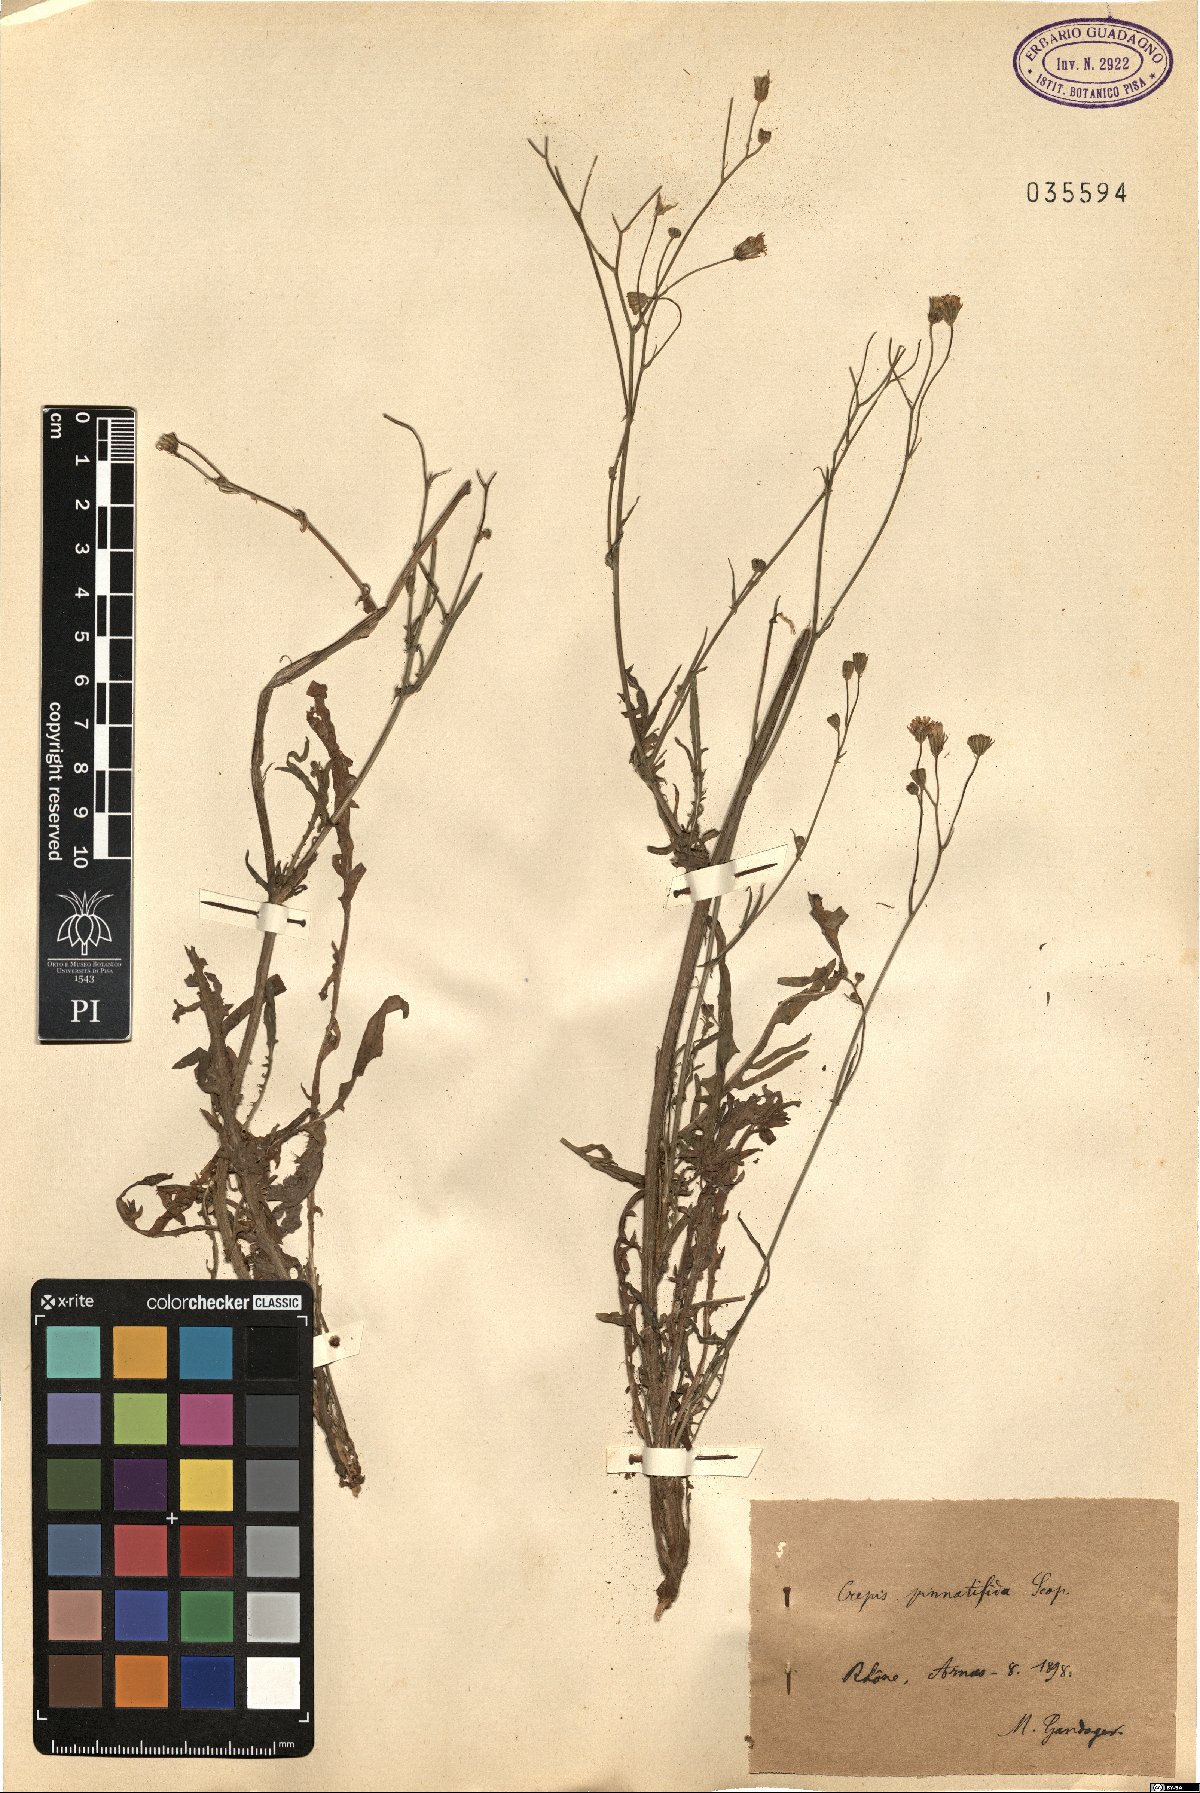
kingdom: Plantae
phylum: Tracheophyta
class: Magnoliopsida
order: Asterales
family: Asteraceae
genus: Crepis
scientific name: Crepis capillaris
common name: Smooth hawksbeard
